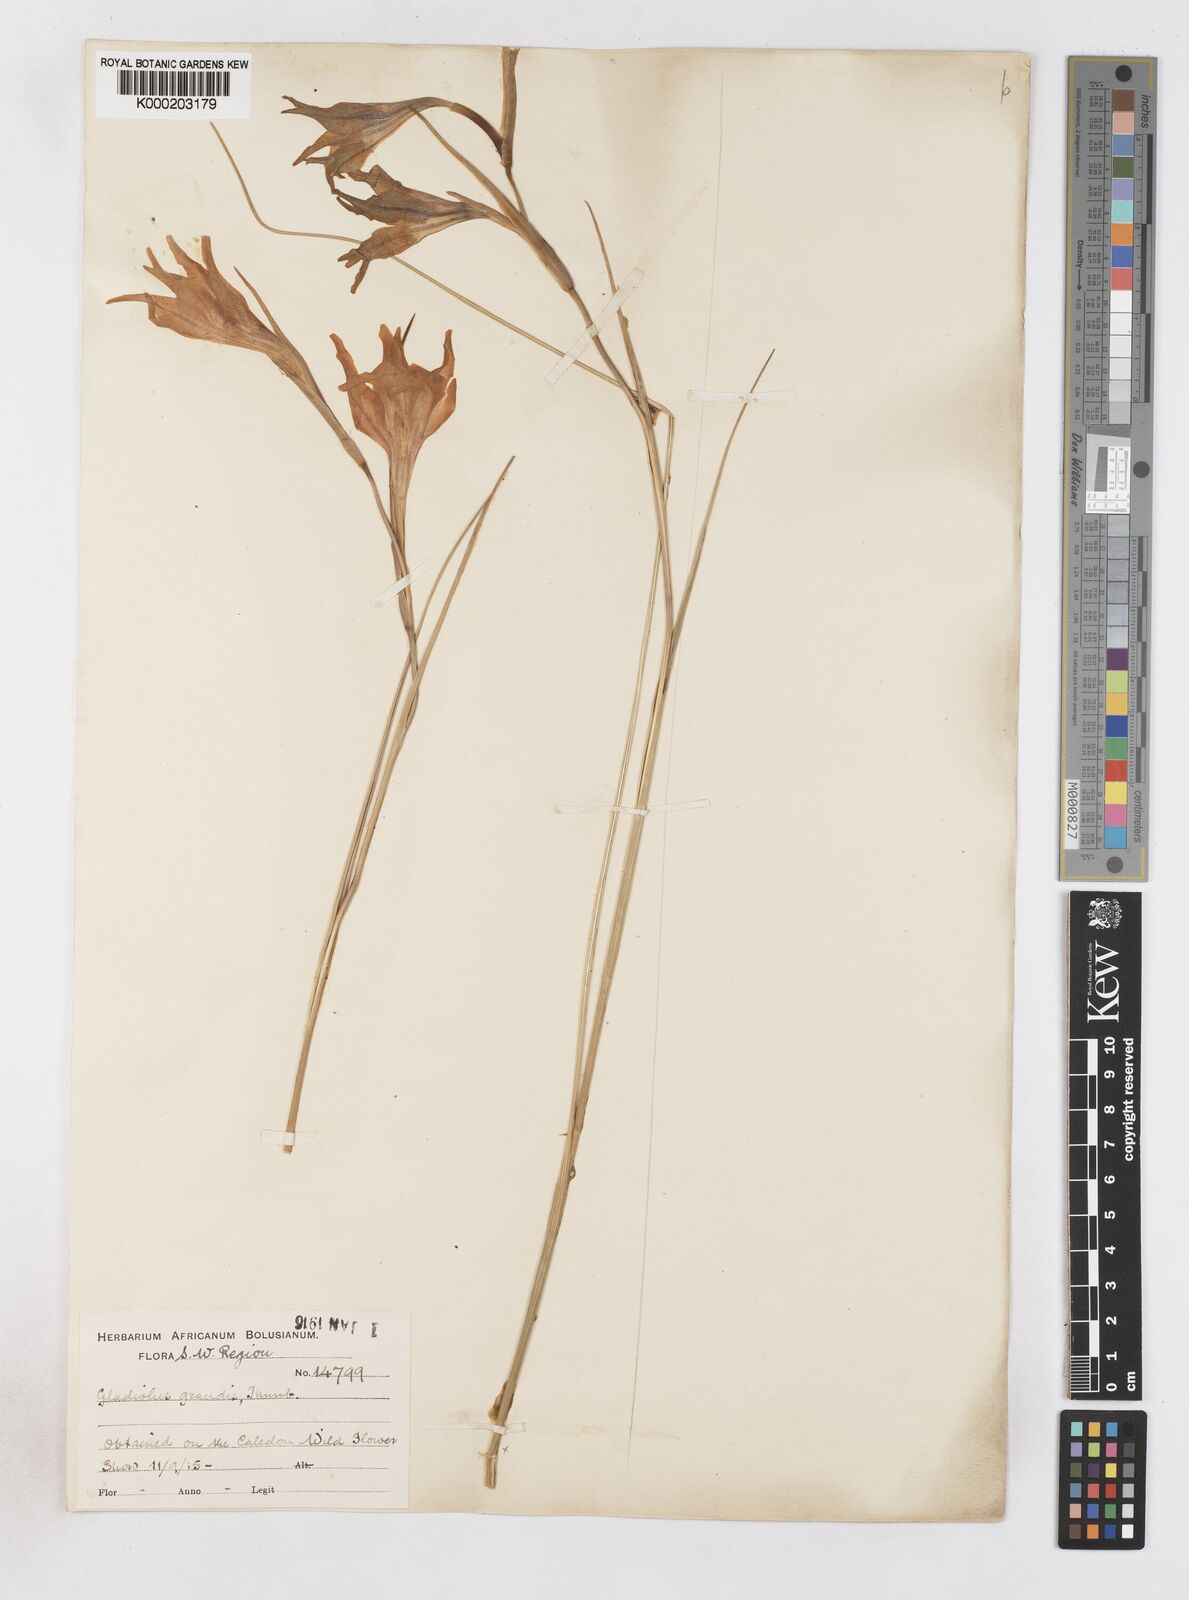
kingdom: Plantae
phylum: Tracheophyta
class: Liliopsida
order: Asparagales
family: Iridaceae
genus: Gladiolus
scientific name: Gladiolus liliaceus
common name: Large brown afrikaner
